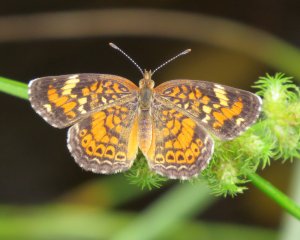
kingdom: Animalia
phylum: Arthropoda
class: Insecta
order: Lepidoptera
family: Nymphalidae
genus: Phyciodes
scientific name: Phyciodes phaon
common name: Phaon Crescent
